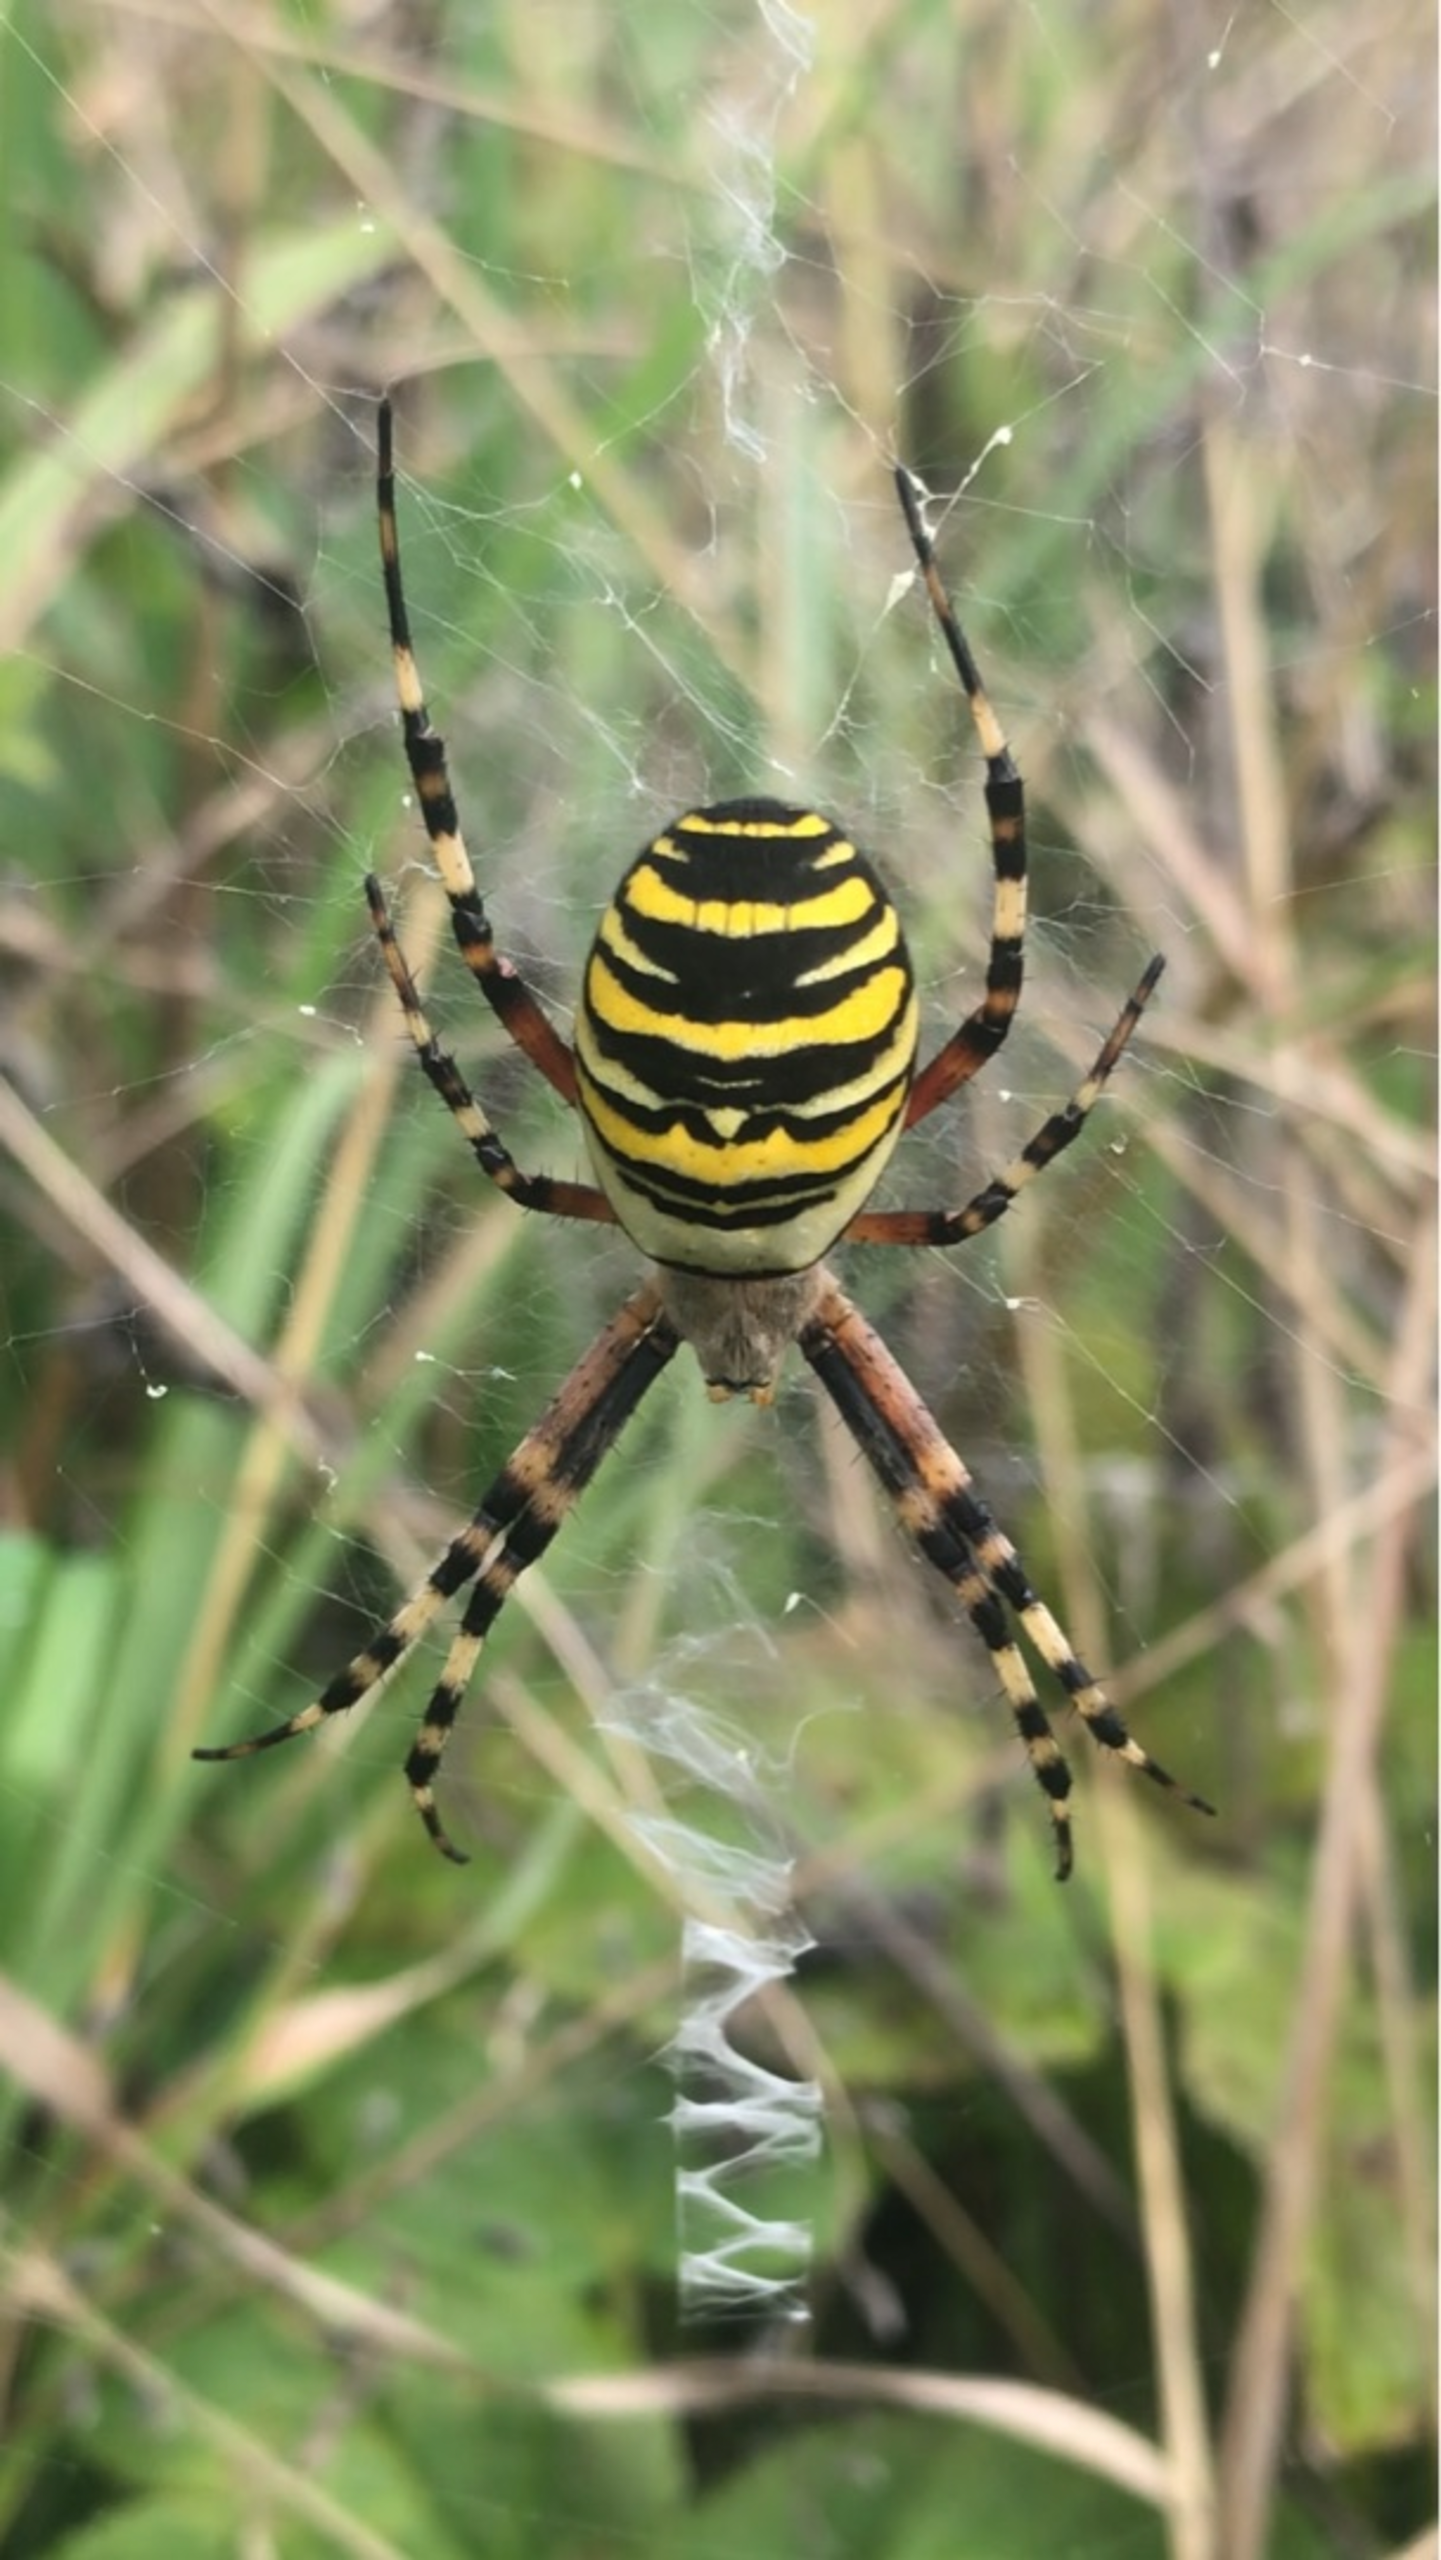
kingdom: Animalia
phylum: Arthropoda
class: Arachnida
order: Araneae
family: Araneidae
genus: Argiope
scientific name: Argiope bruennichi
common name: Hvepseedderkop
